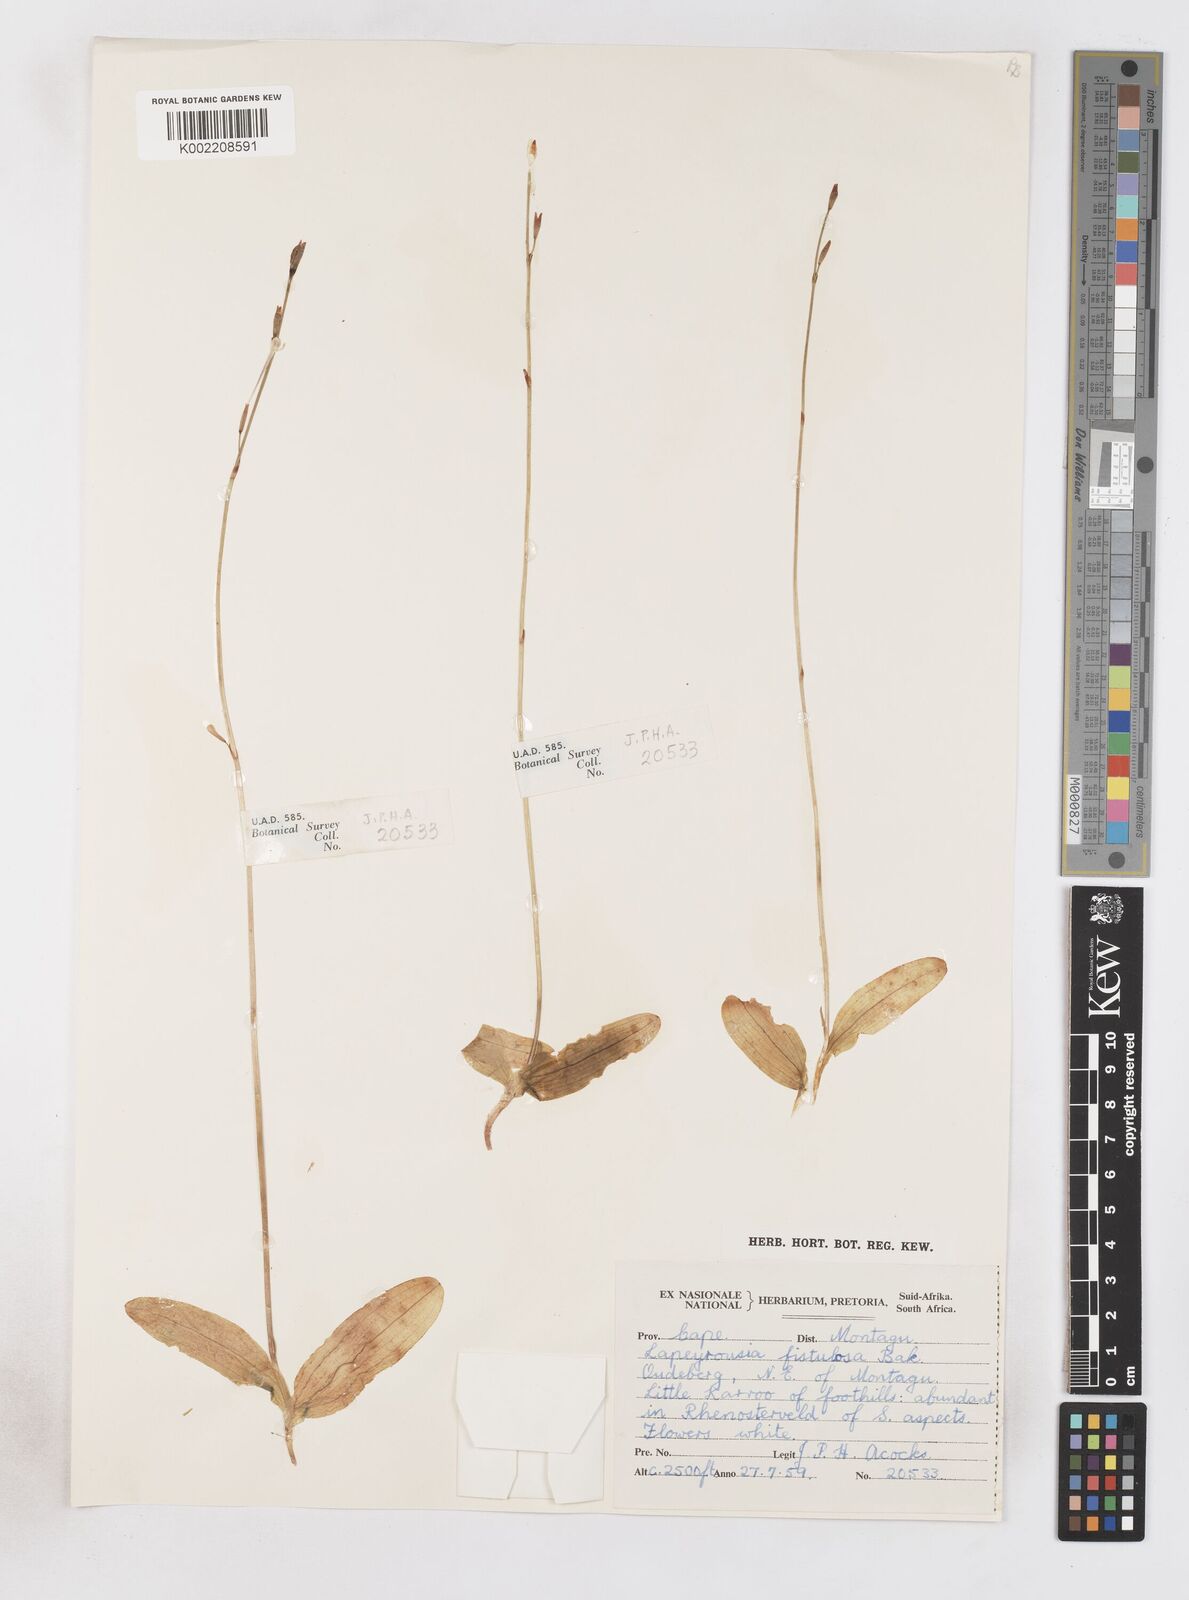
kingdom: Plantae
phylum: Tracheophyta
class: Liliopsida
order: Asparagales
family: Iridaceae
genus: Xenoscapa
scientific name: Xenoscapa fistulosa
